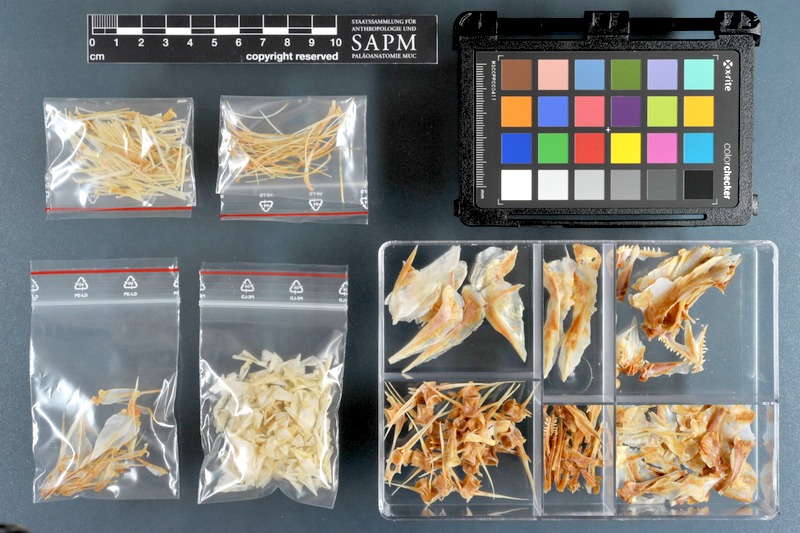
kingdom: Animalia
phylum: Chordata
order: Perciformes
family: Mullidae
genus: Parupeneus
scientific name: Parupeneus heptacanthus
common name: Cinnabar goatfish
